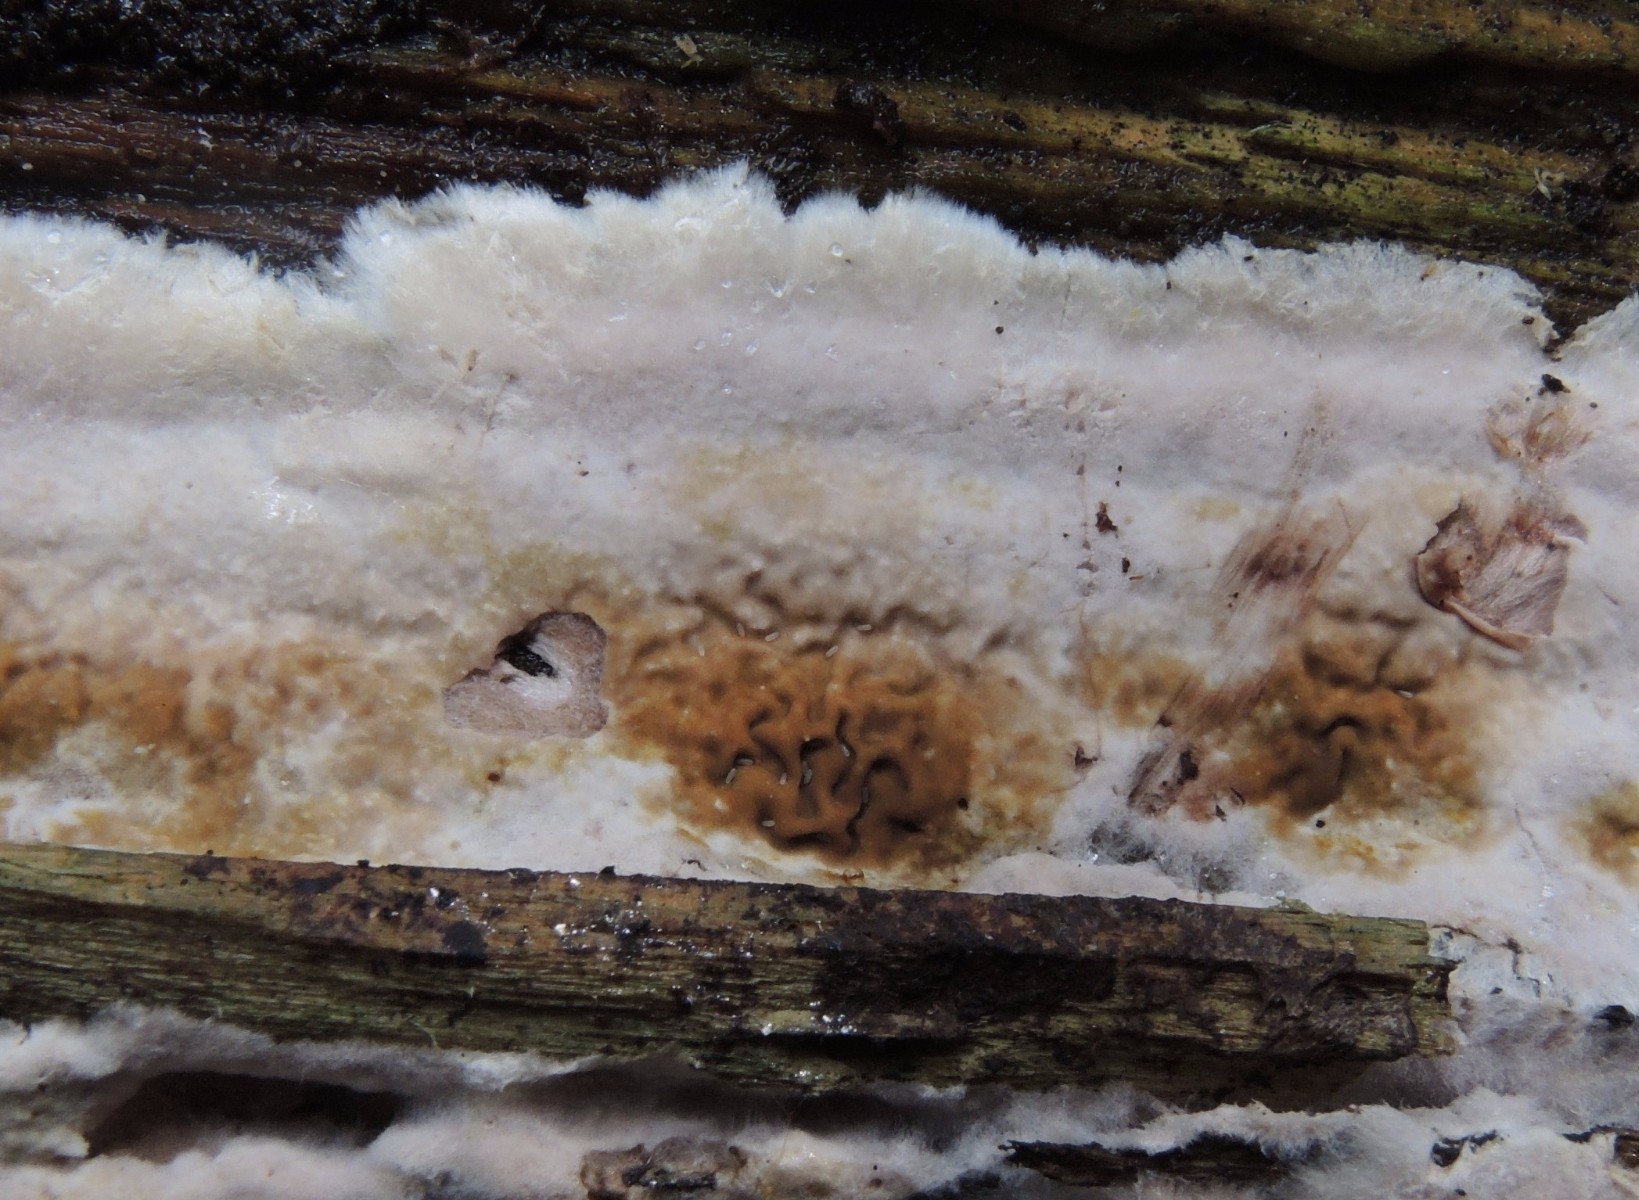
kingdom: Fungi
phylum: Basidiomycota
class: Agaricomycetes
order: Boletales
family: Serpulaceae
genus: Serpula
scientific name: Serpula himantioides
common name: tyndkødet hussvamp
